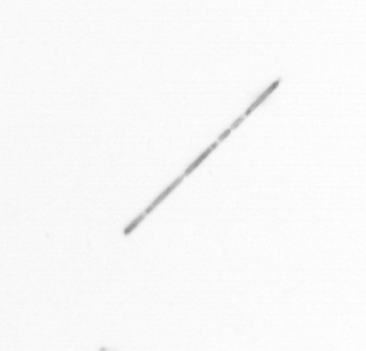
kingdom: Chromista
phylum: Ochrophyta
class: Bacillariophyceae
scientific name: Bacillariophyceae
